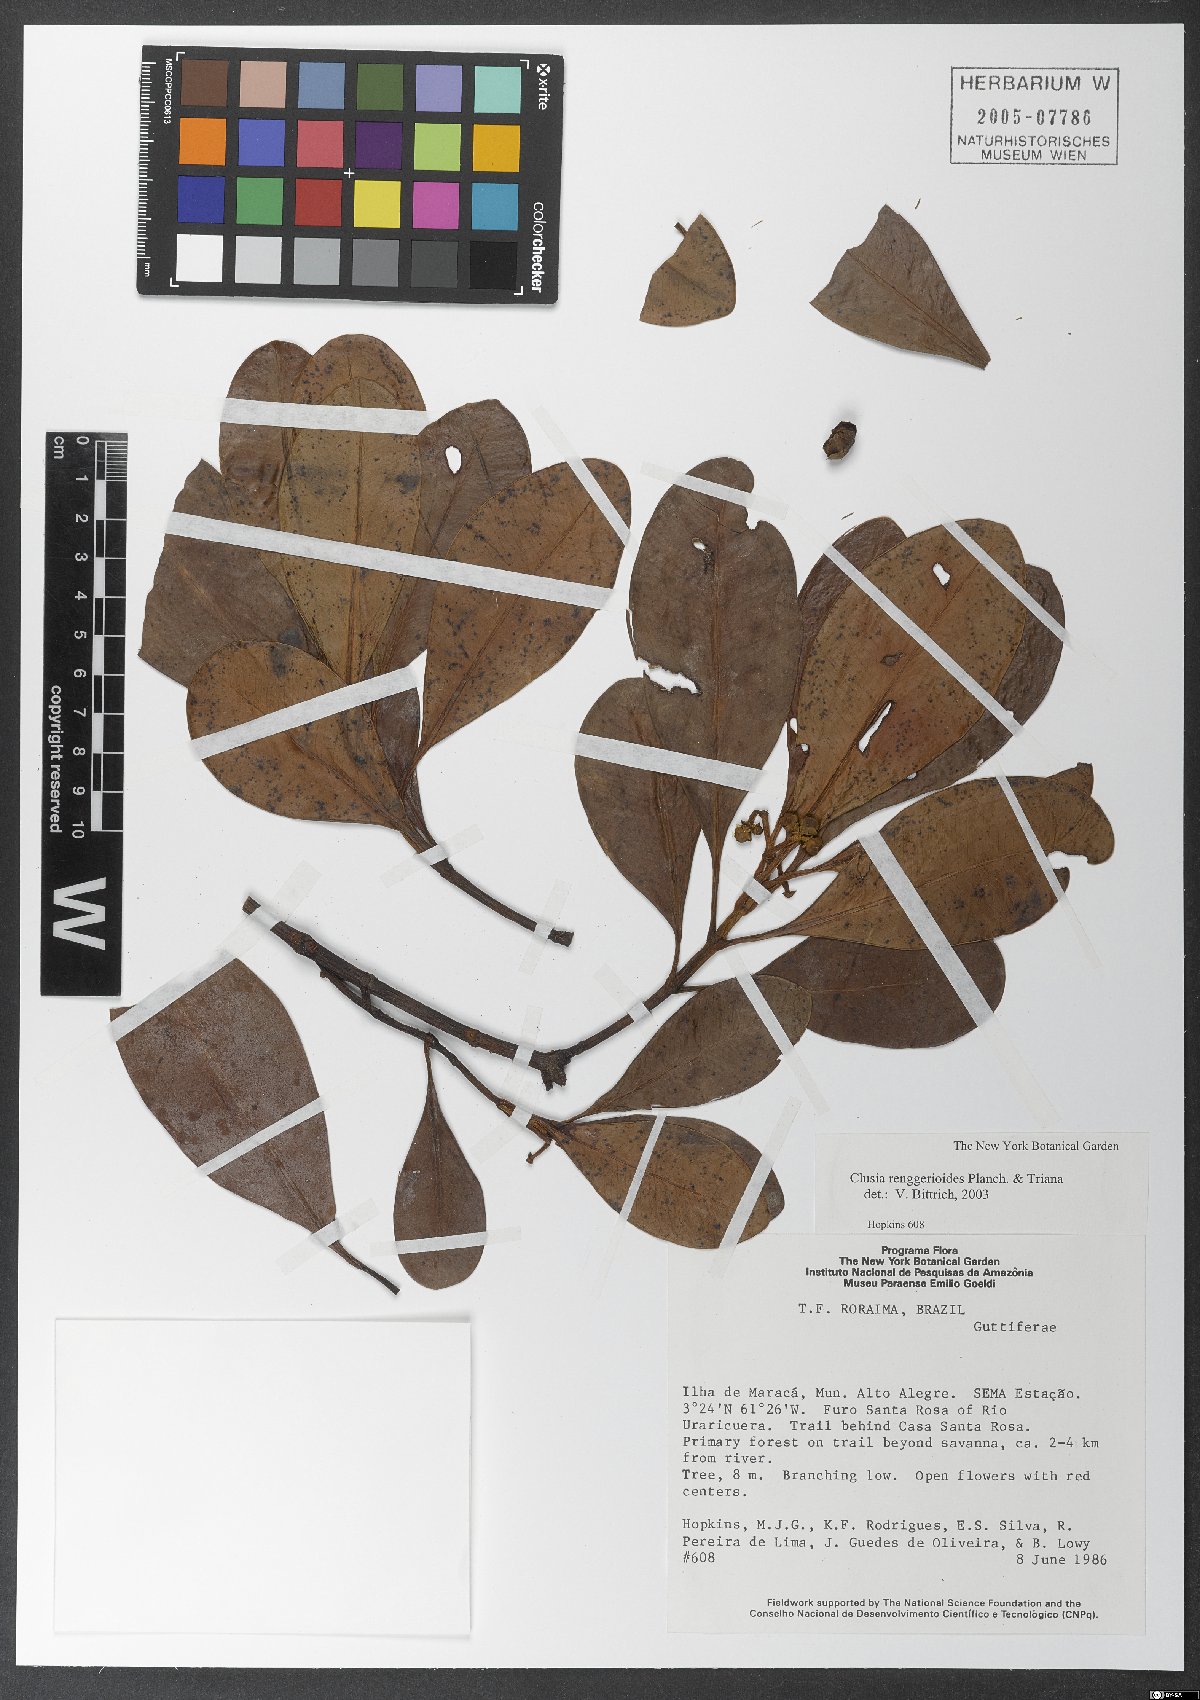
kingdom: Plantae
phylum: Tracheophyta
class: Magnoliopsida
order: Malpighiales
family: Clusiaceae
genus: Clusia
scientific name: Clusia renggerioides
